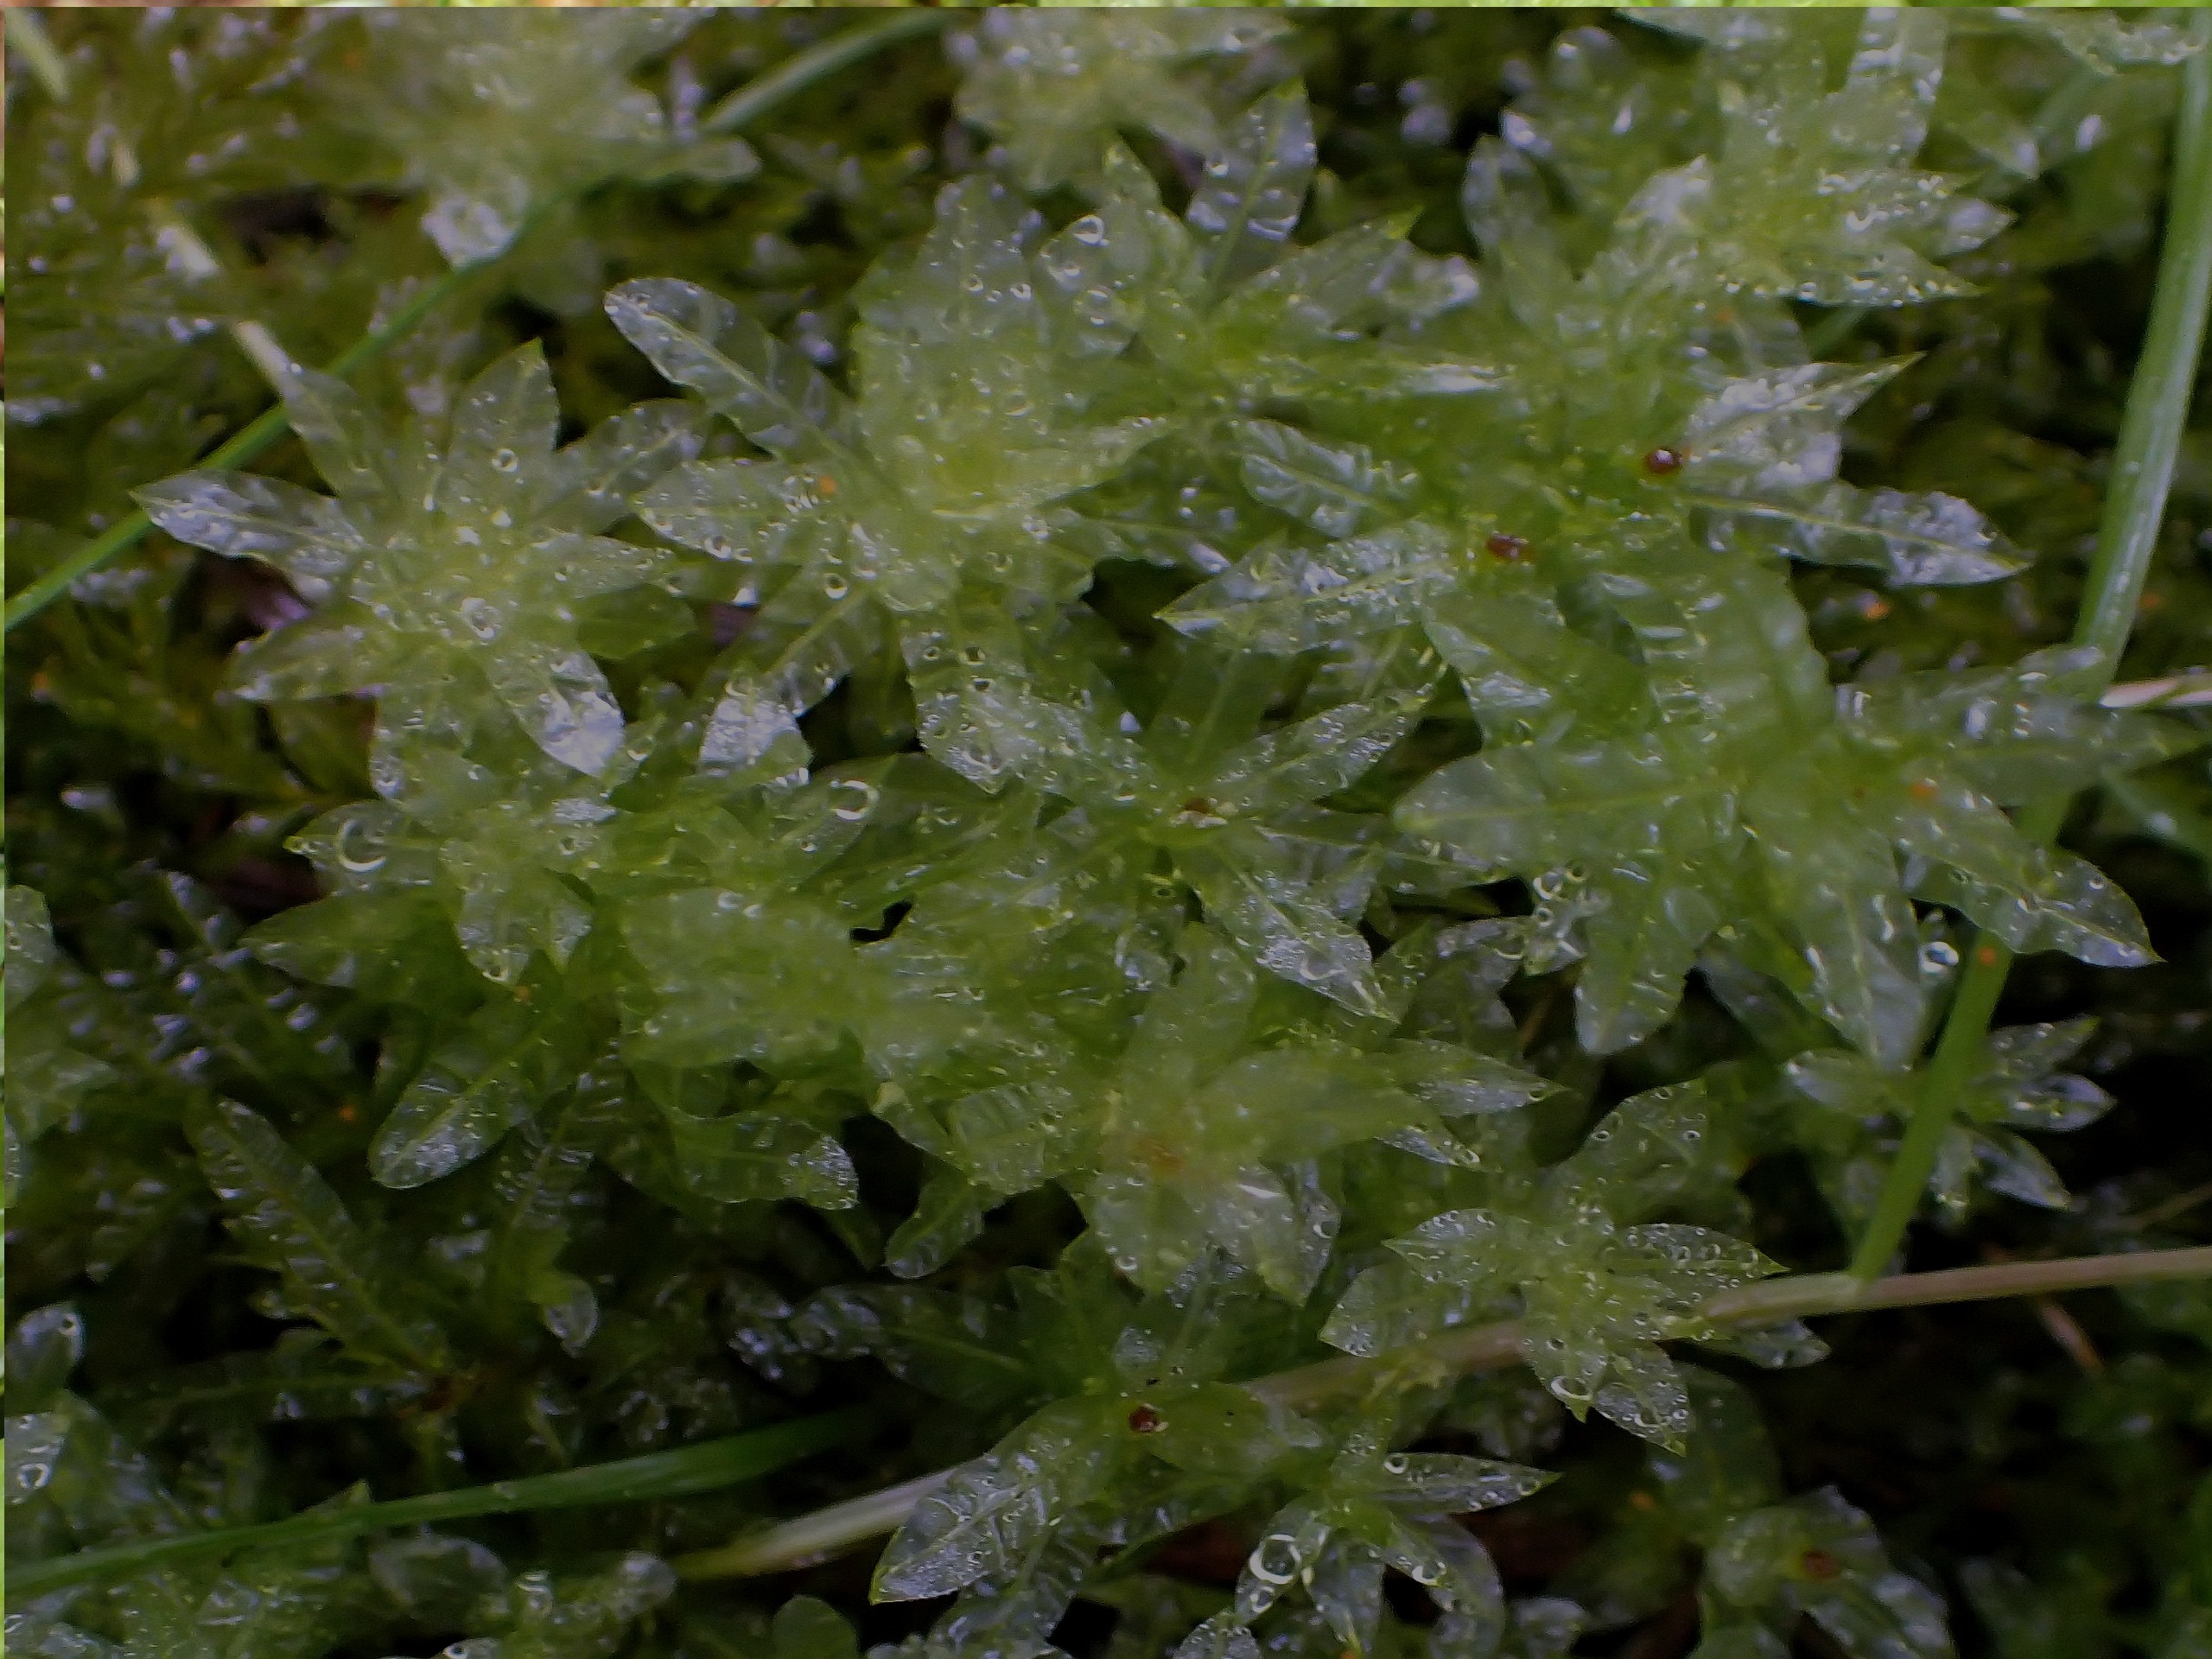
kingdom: Plantae
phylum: Bryophyta
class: Bryopsida
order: Bryales
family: Mniaceae
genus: Plagiomnium
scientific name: Plagiomnium undulatum
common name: Bølget krybstjerne
